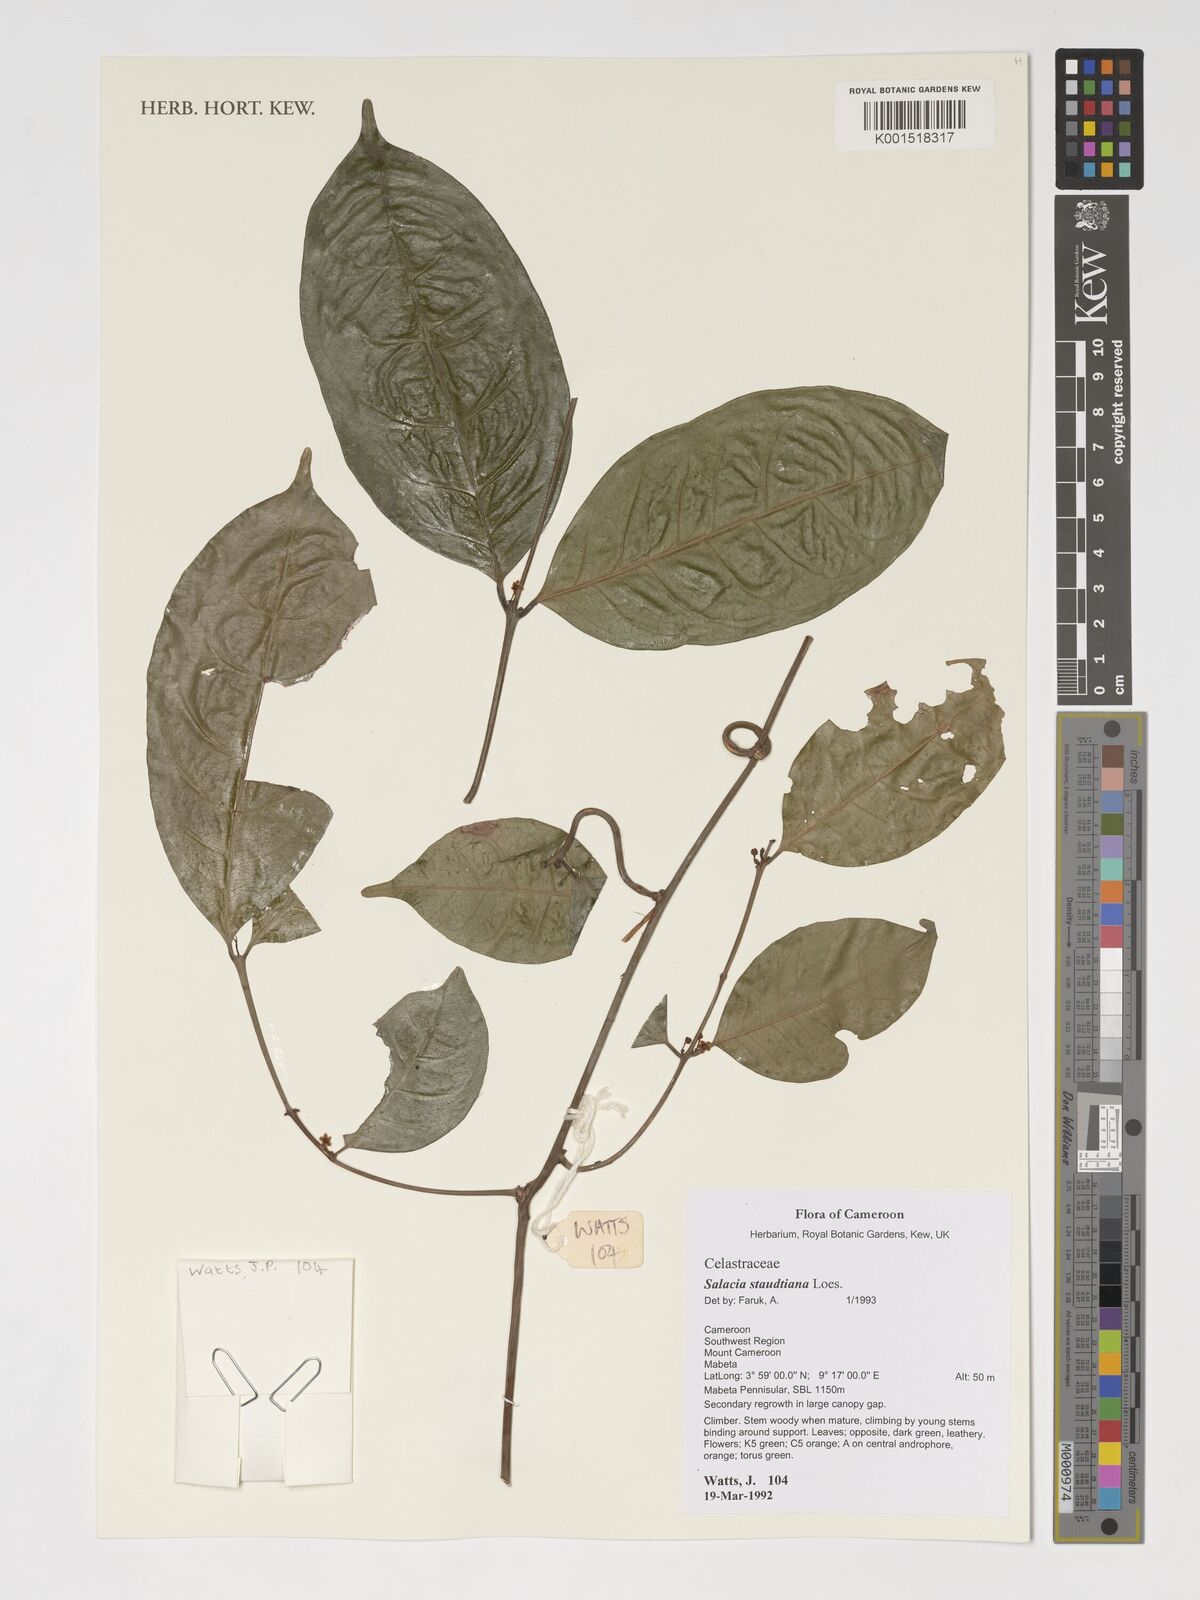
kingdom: Plantae
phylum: Tracheophyta
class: Magnoliopsida
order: Celastrales
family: Celastraceae
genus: Salacia
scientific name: Salacia staudtiana
